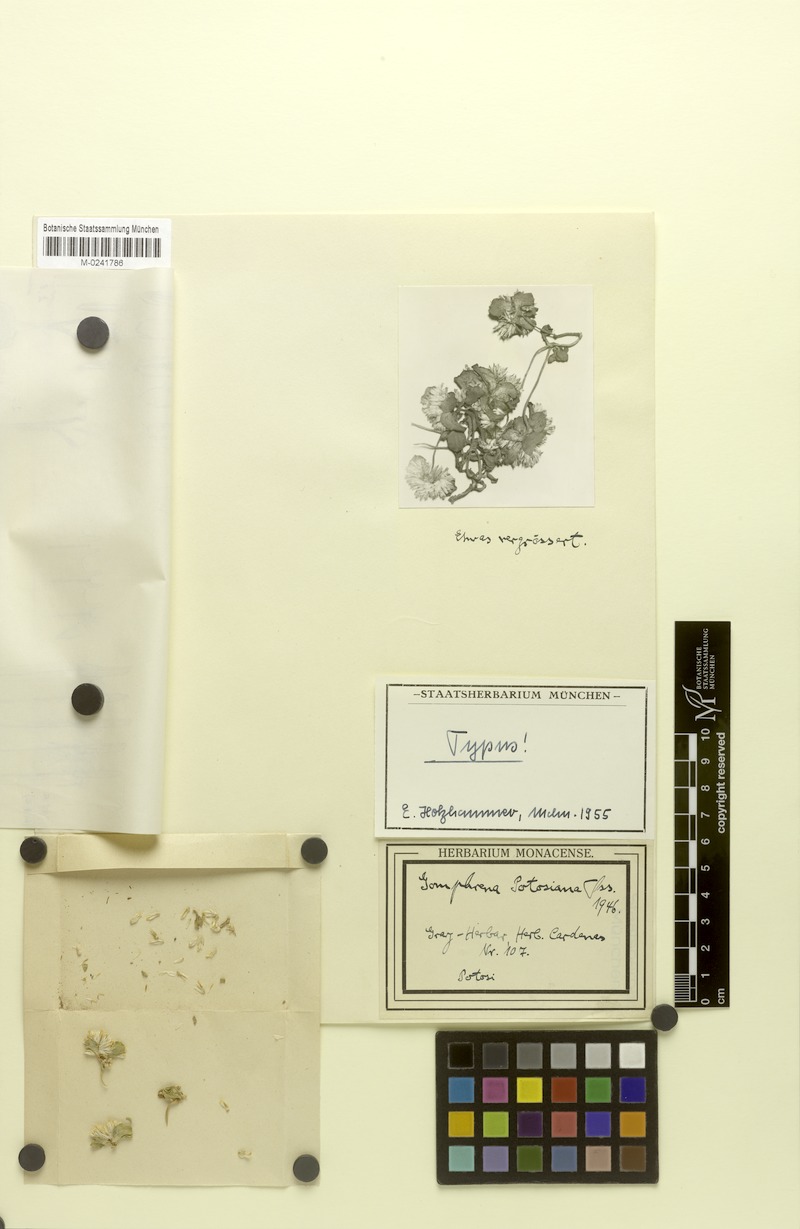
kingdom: Plantae
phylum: Tracheophyta
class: Magnoliopsida
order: Caryophyllales
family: Amaranthaceae
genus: Gomphrena
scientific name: Gomphrena potosiana
